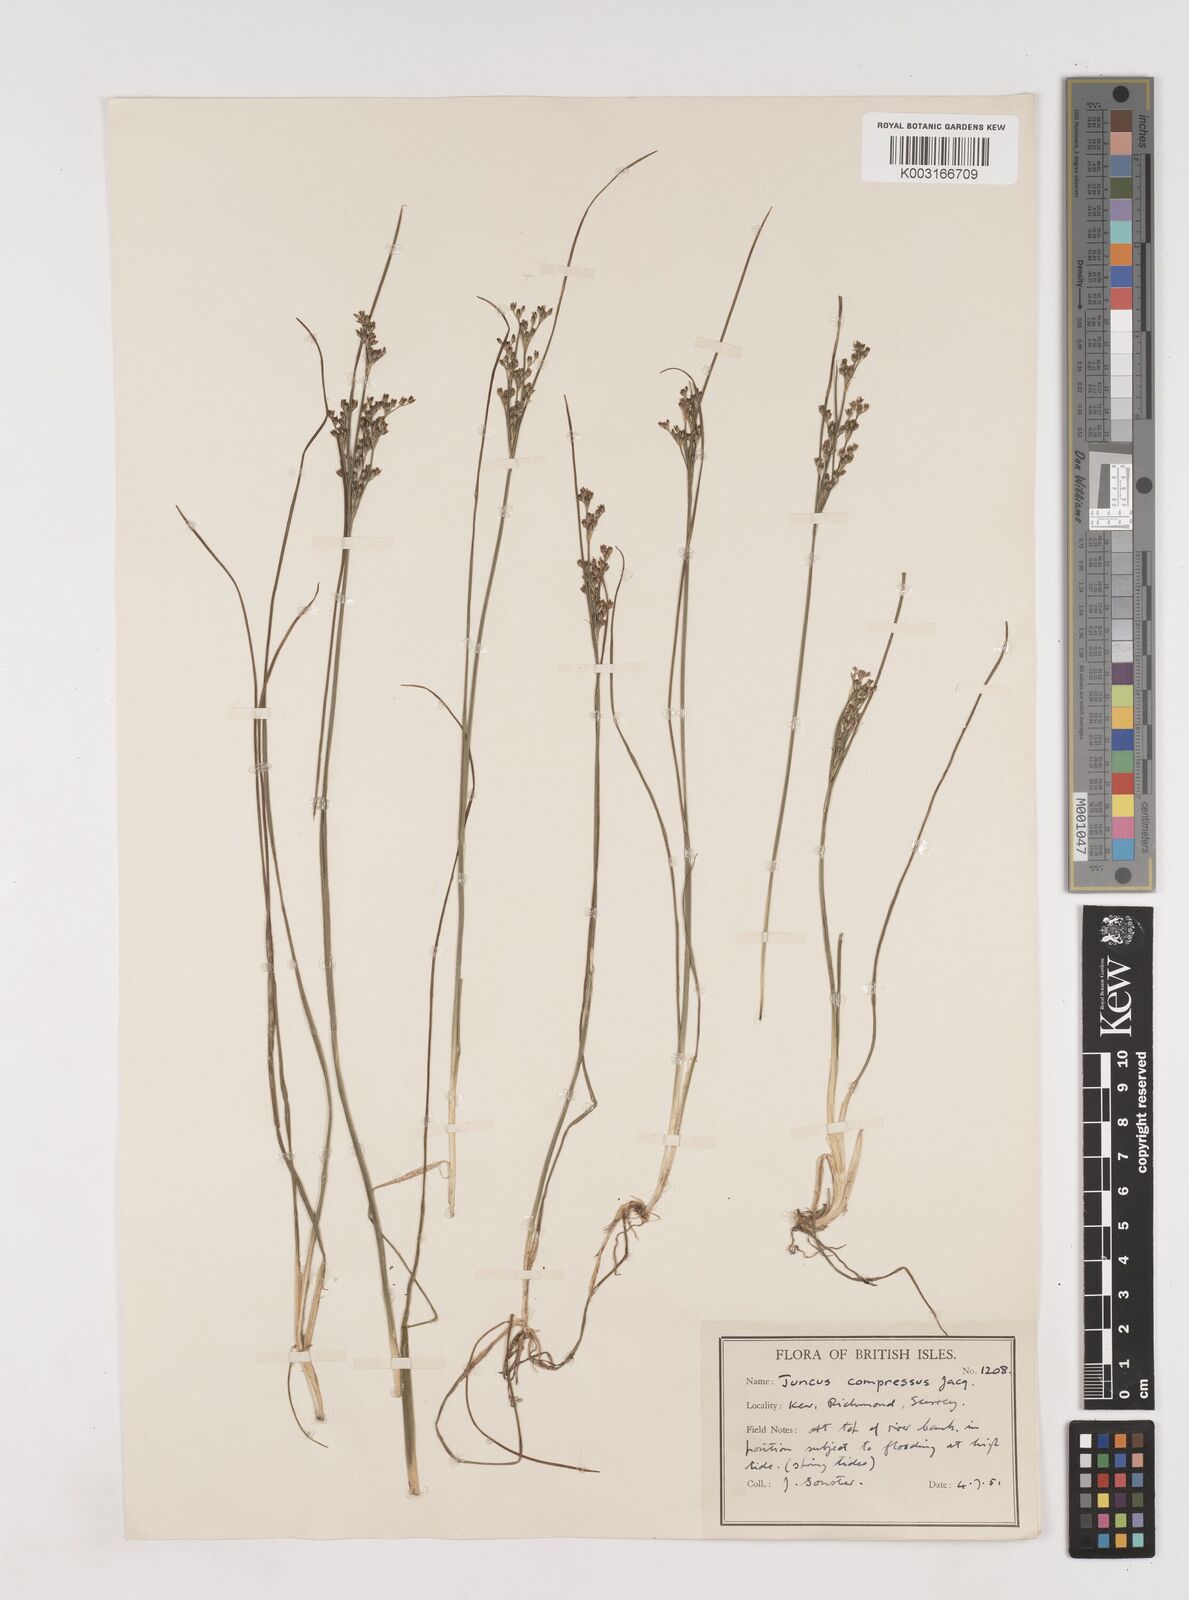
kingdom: Plantae
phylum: Tracheophyta
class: Liliopsida
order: Poales
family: Juncaceae
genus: Juncus
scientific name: Juncus compressus
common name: Round-fruited rush
